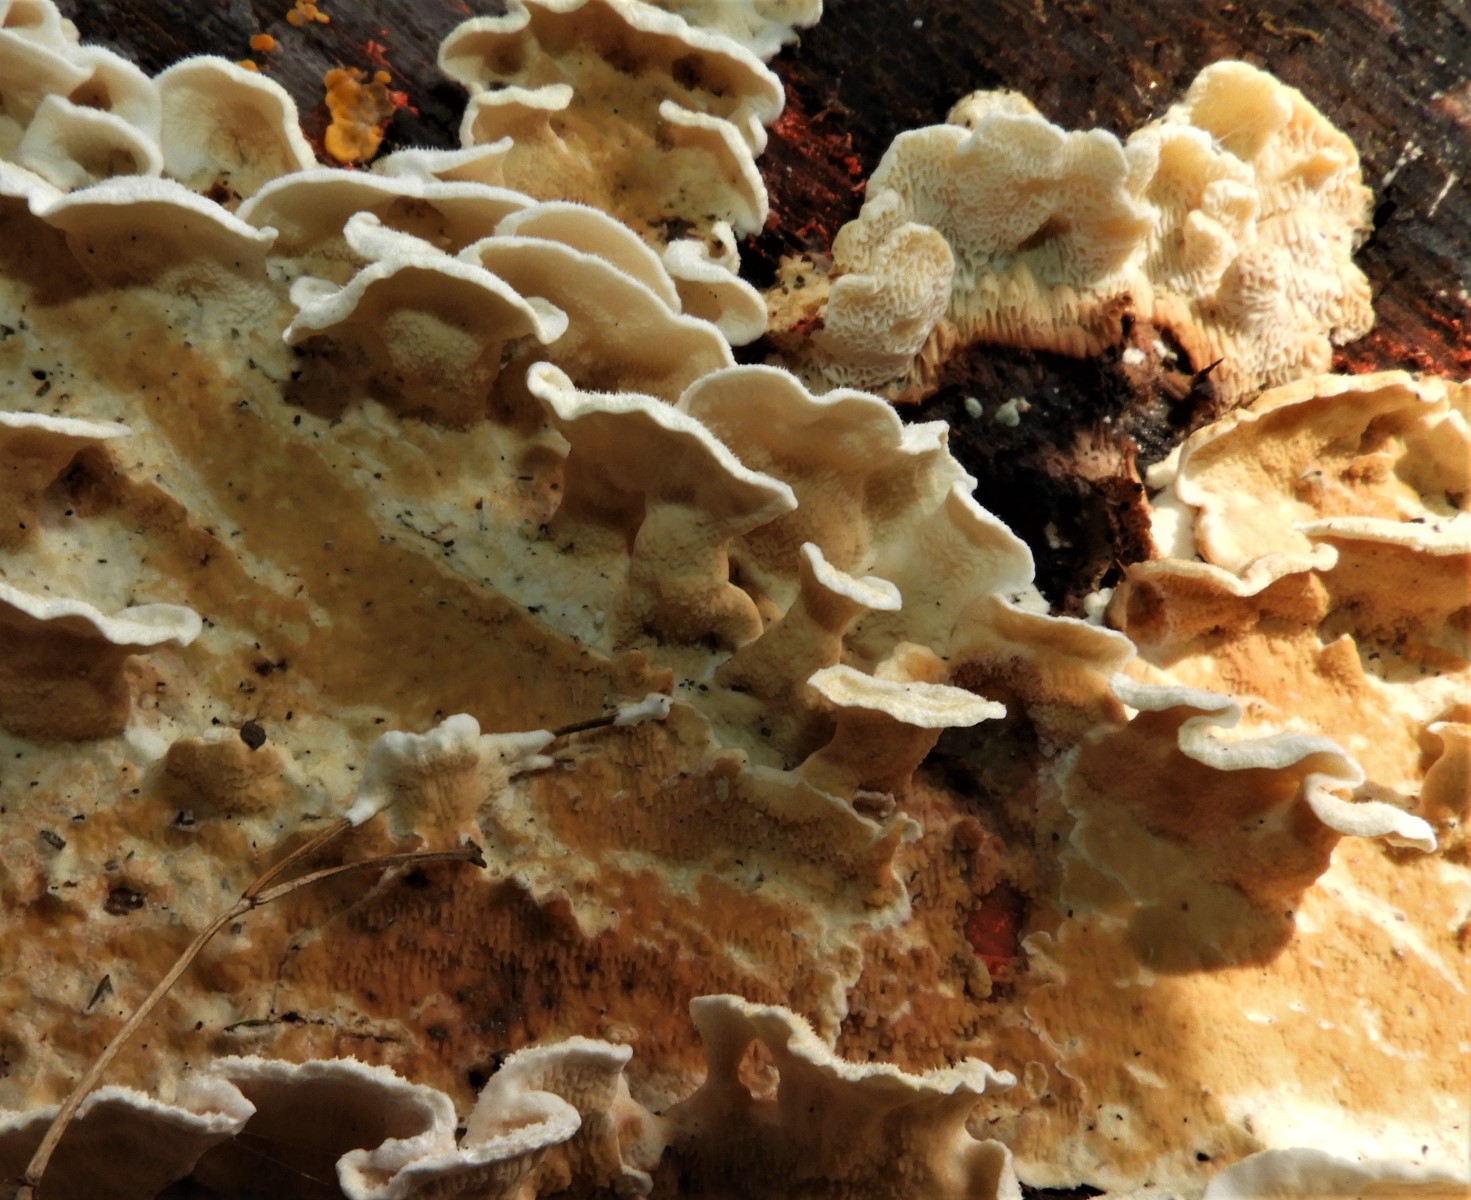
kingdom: Fungi
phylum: Basidiomycota
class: Agaricomycetes
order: Polyporales
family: Incrustoporiaceae
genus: Skeletocutis
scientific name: Skeletocutis amorpha
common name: orange krystalporesvamp
